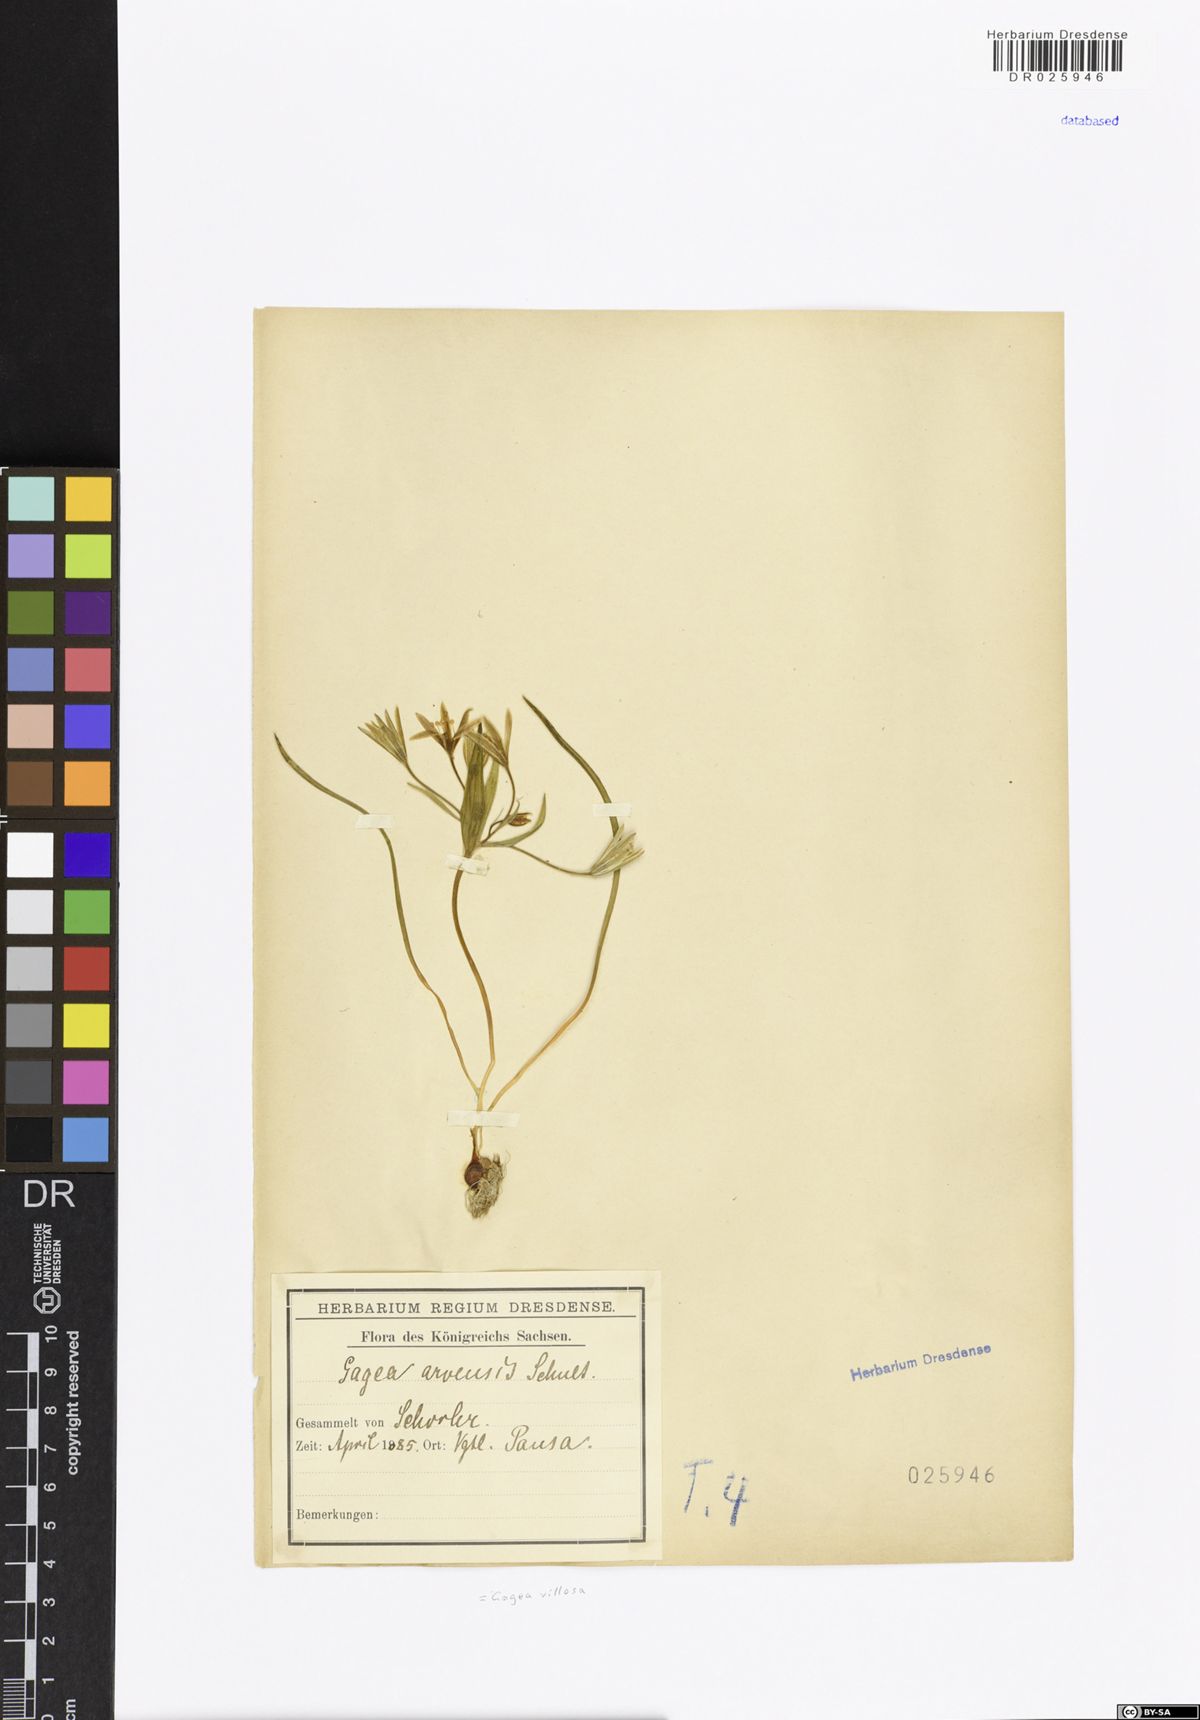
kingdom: Plantae
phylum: Tracheophyta
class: Liliopsida
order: Liliales
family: Liliaceae
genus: Gagea
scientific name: Gagea villosa
